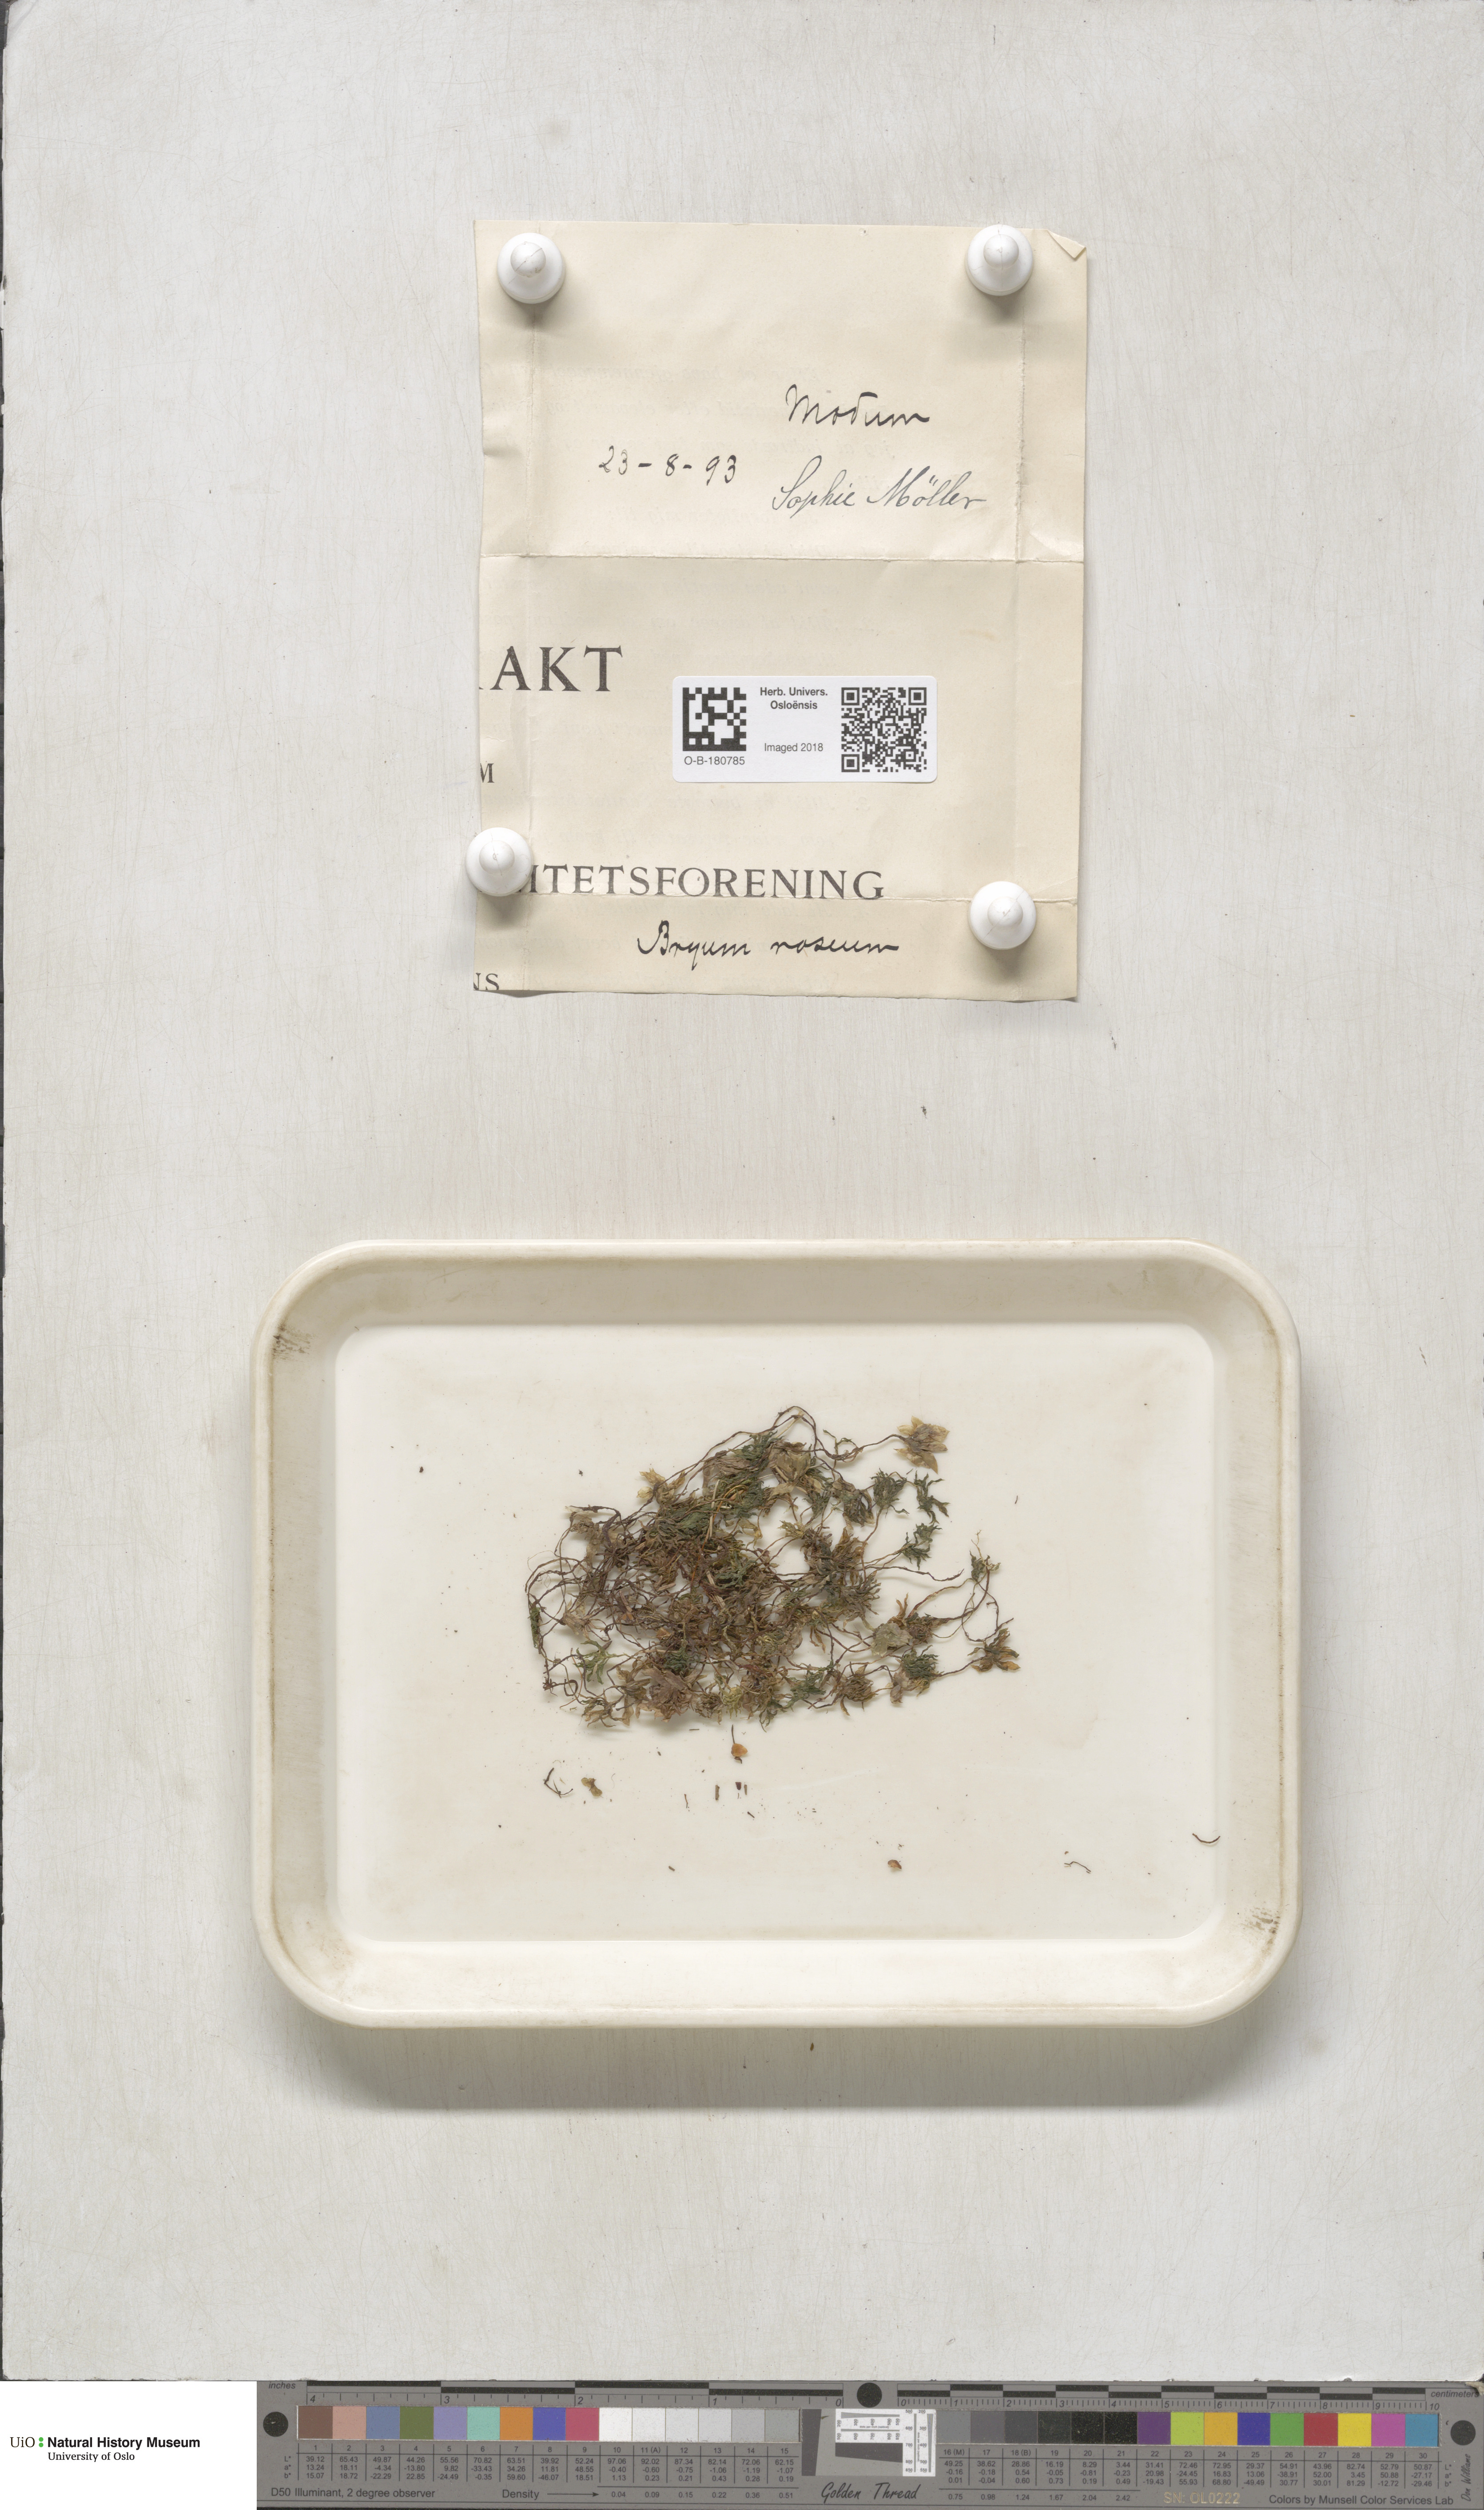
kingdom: Plantae
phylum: Bryophyta
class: Bryopsida
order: Bryales
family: Bryaceae
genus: Rhodobryum
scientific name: Rhodobryum roseum
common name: Rose-moss
